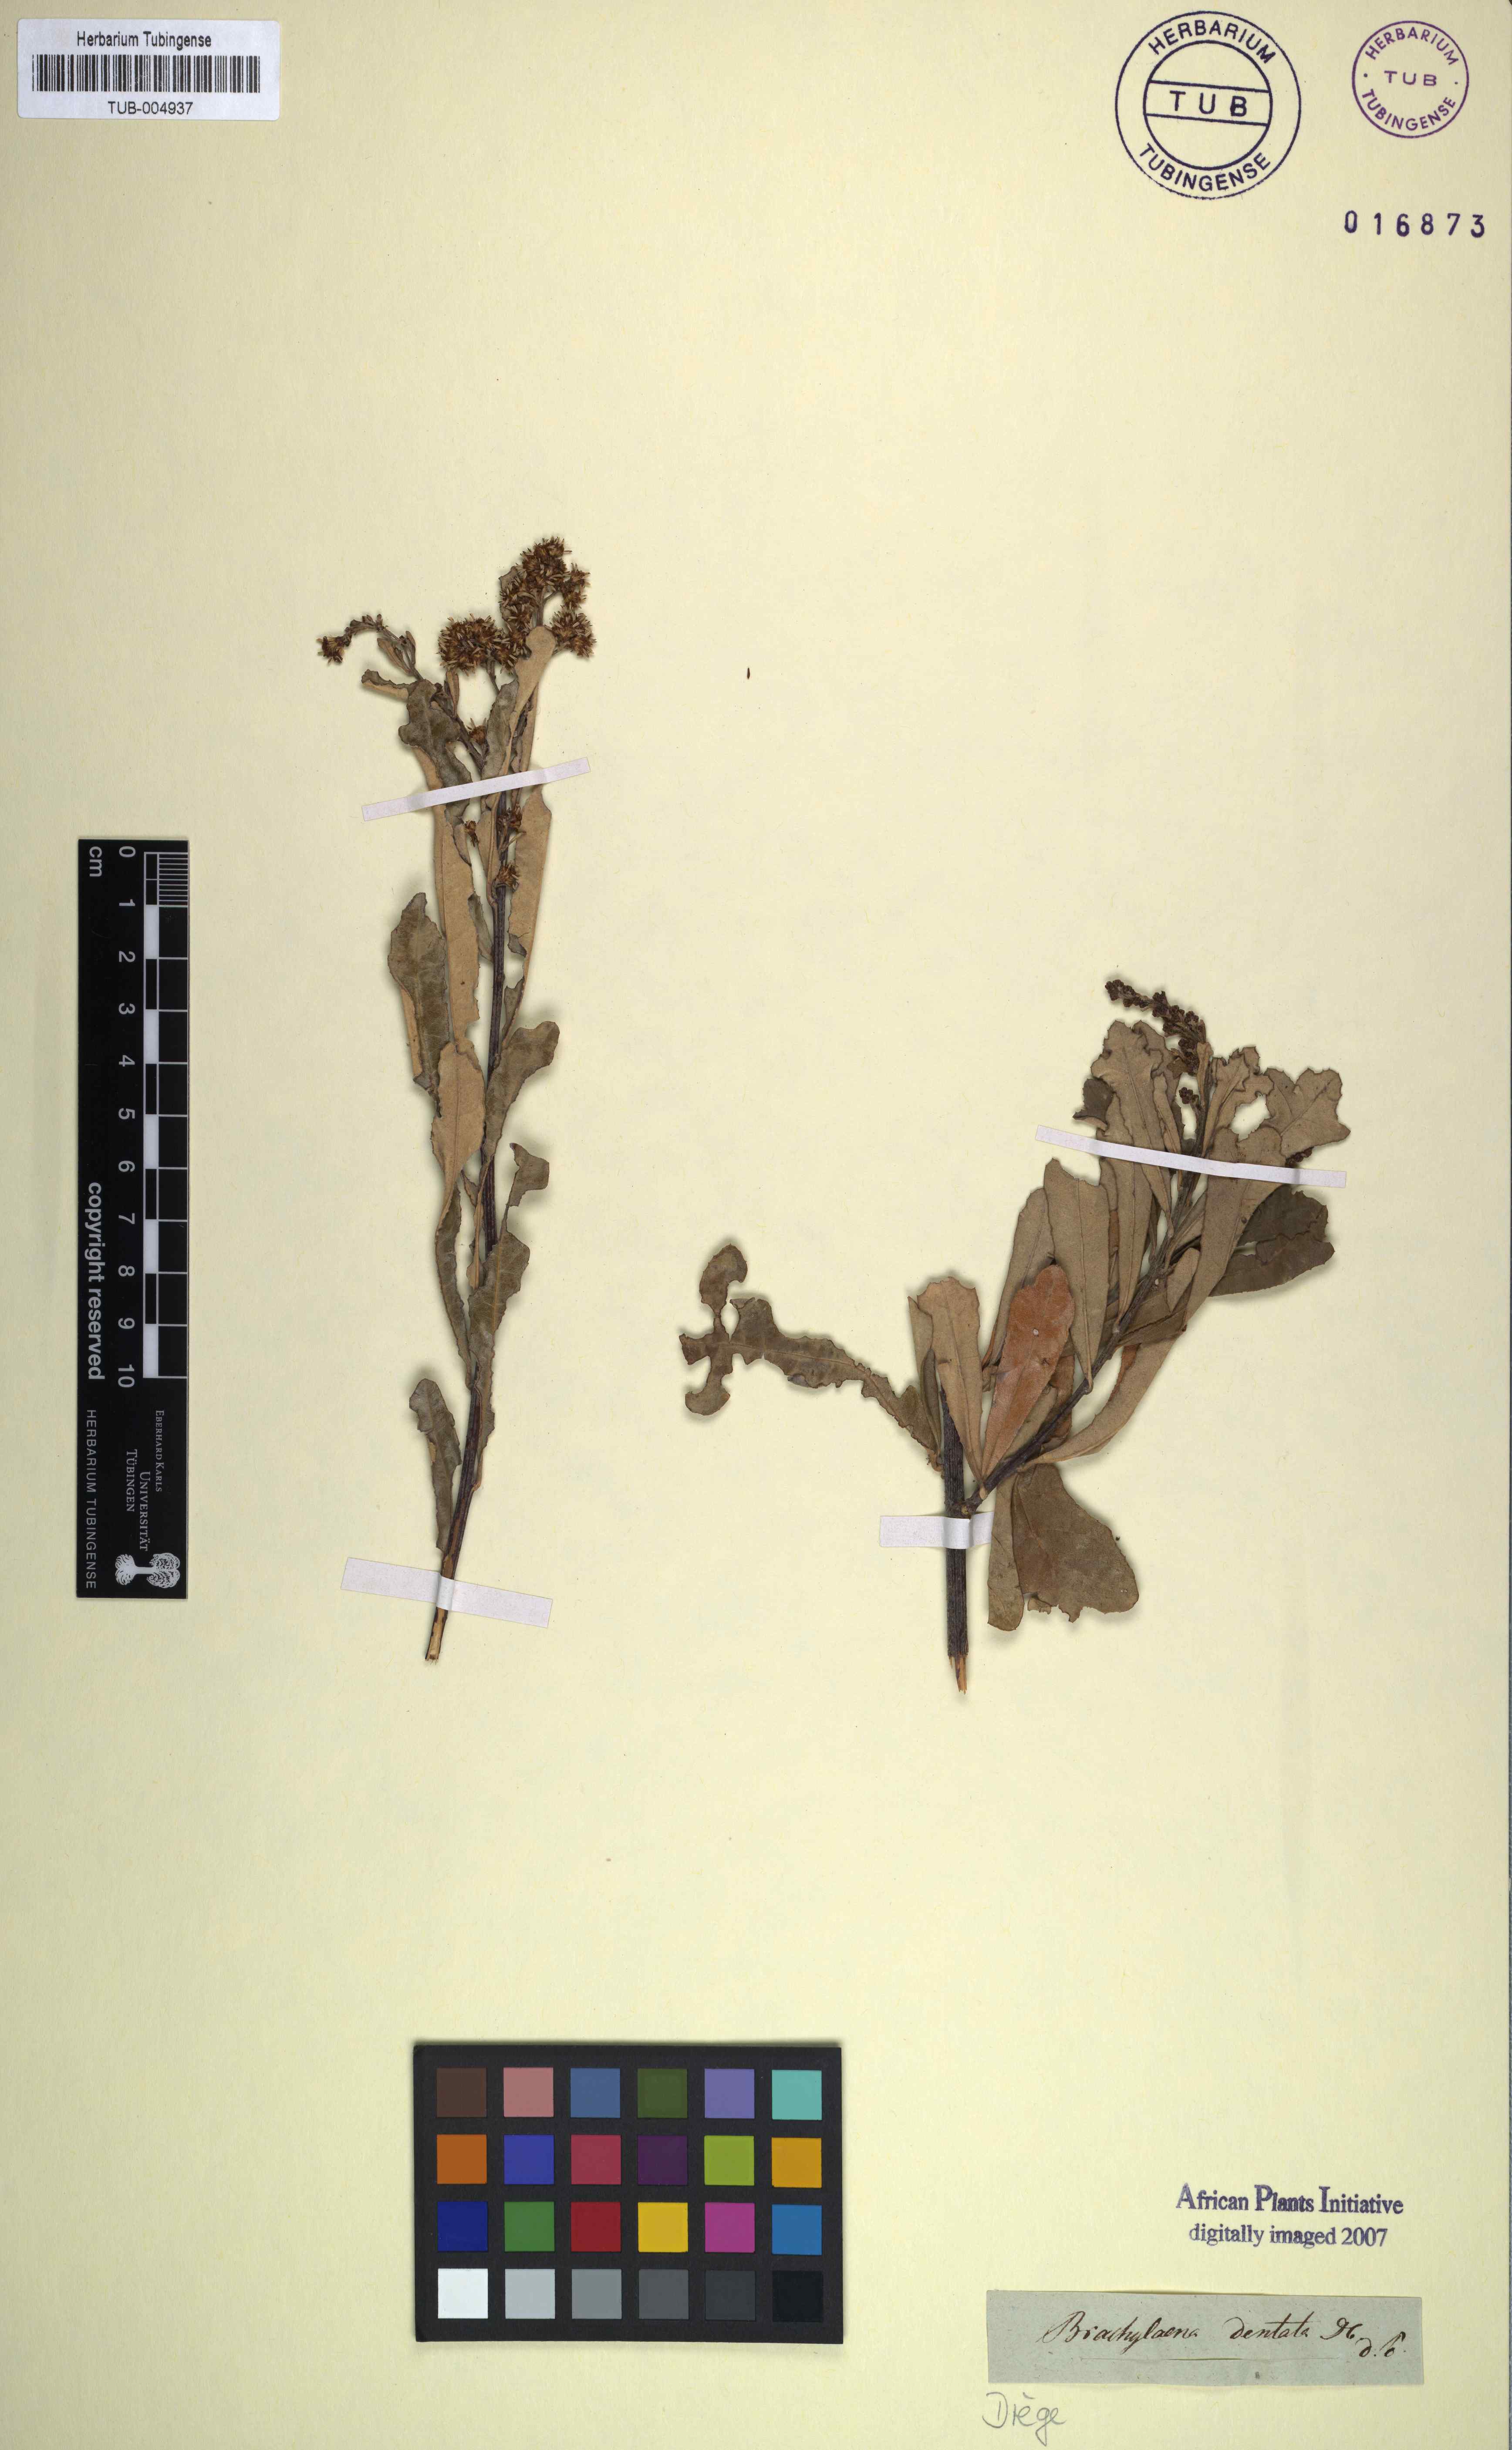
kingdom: Plantae
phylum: Tracheophyta
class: Magnoliopsida
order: Asterales
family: Asteraceae
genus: Brachylaena
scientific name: Brachylaena glabra
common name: Malabar silver-oak
